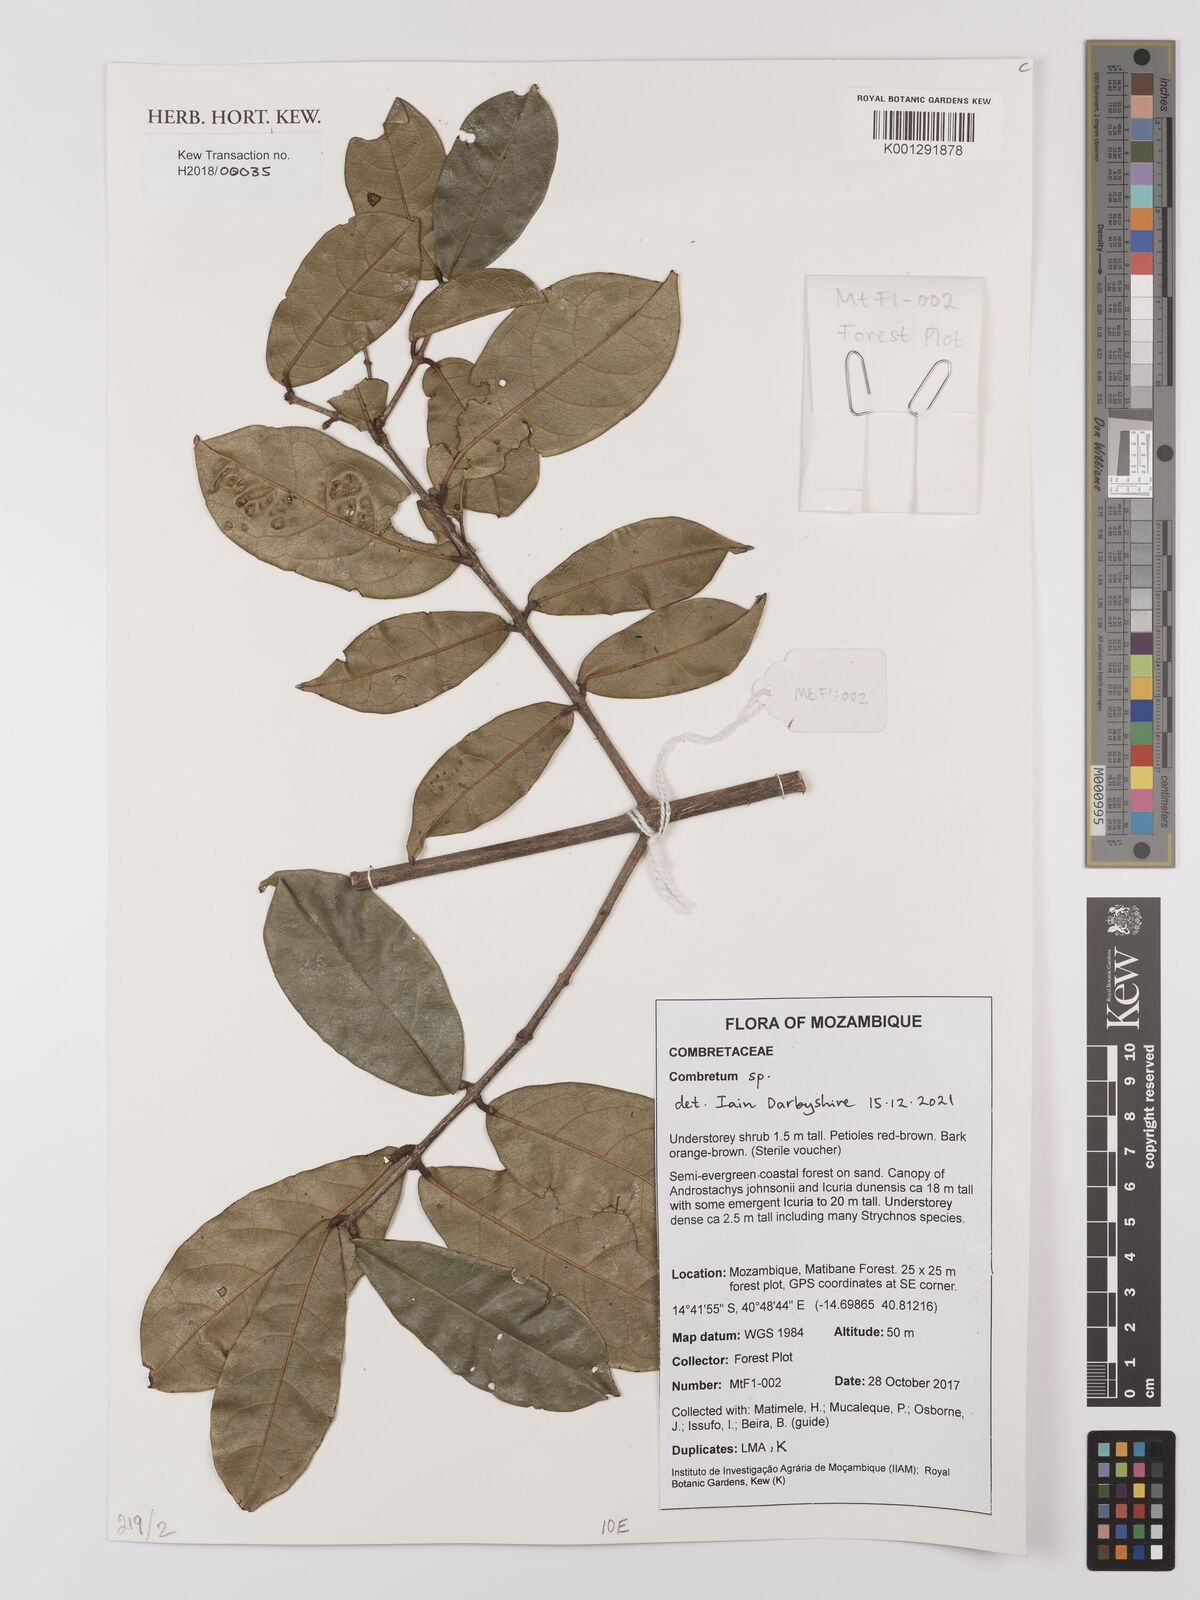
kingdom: Plantae
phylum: Tracheophyta
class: Magnoliopsida
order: Myrtales
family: Combretaceae
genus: Combretum
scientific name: Combretum
